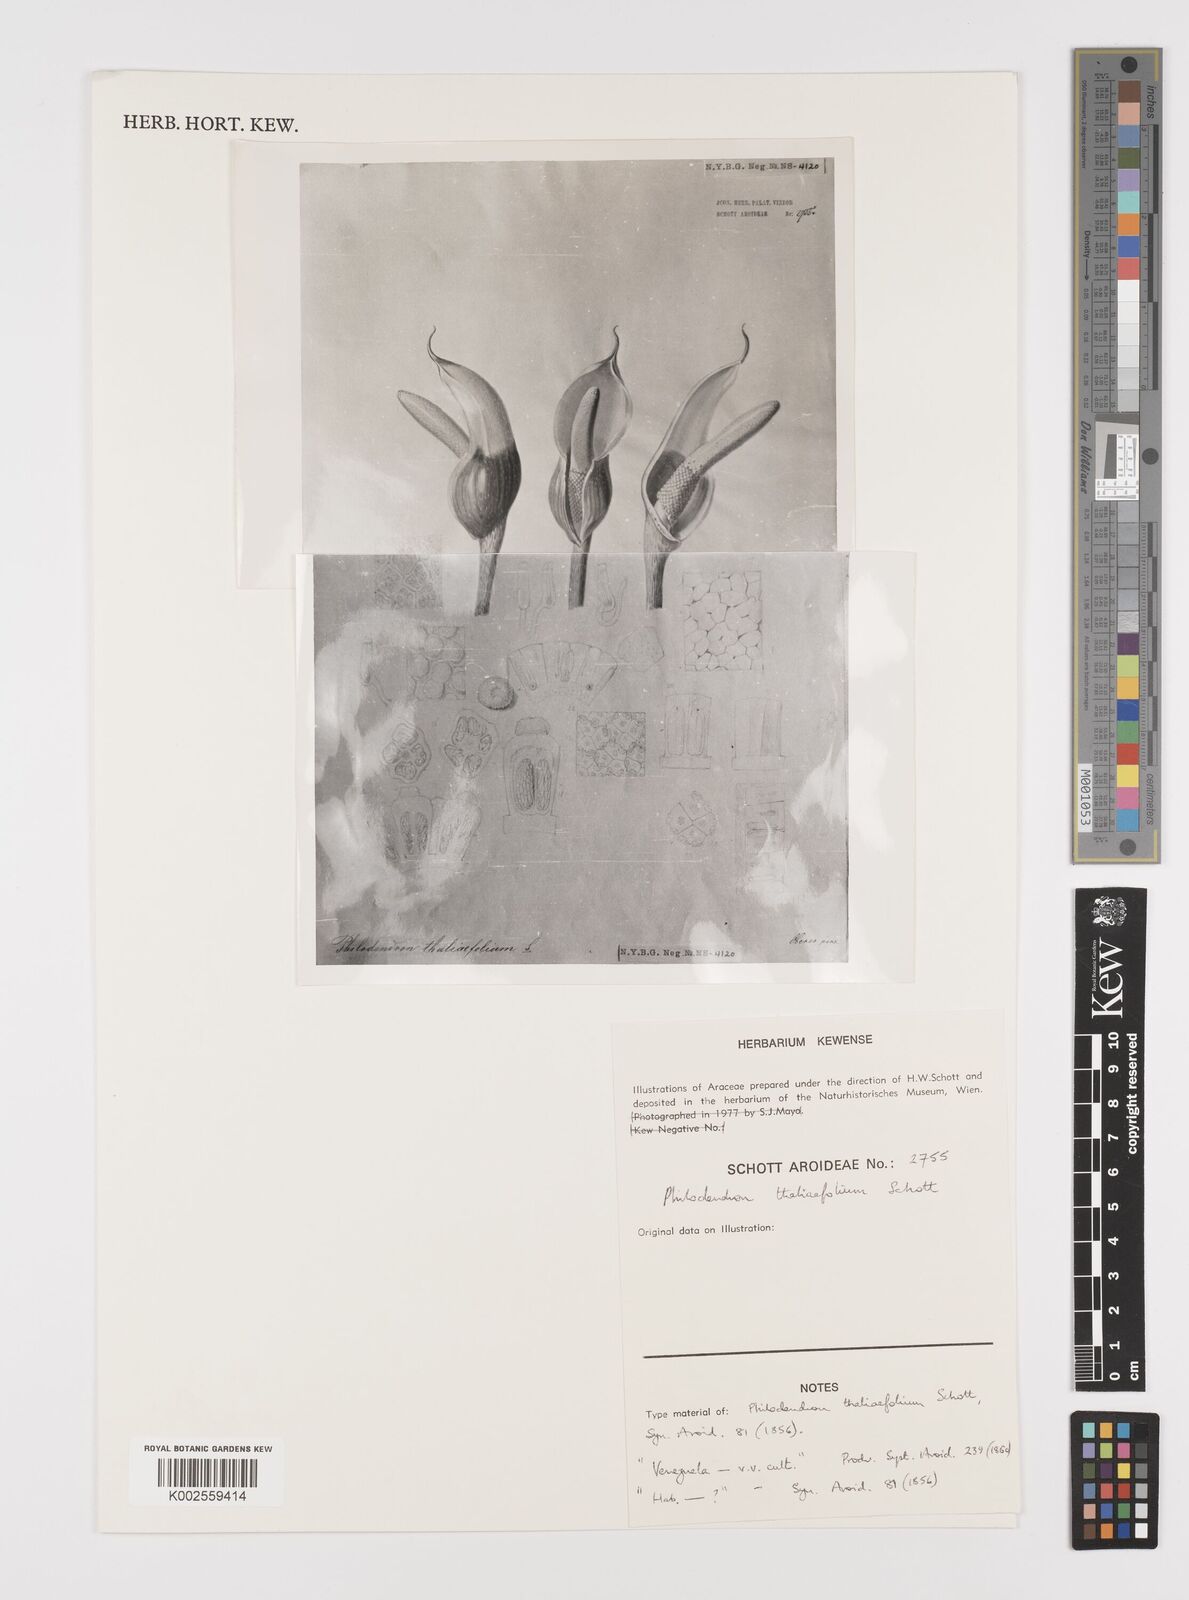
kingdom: Plantae
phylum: Tracheophyta
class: Liliopsida
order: Alismatales
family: Araceae
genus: Philodendron
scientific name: Philodendron thaliifolium
